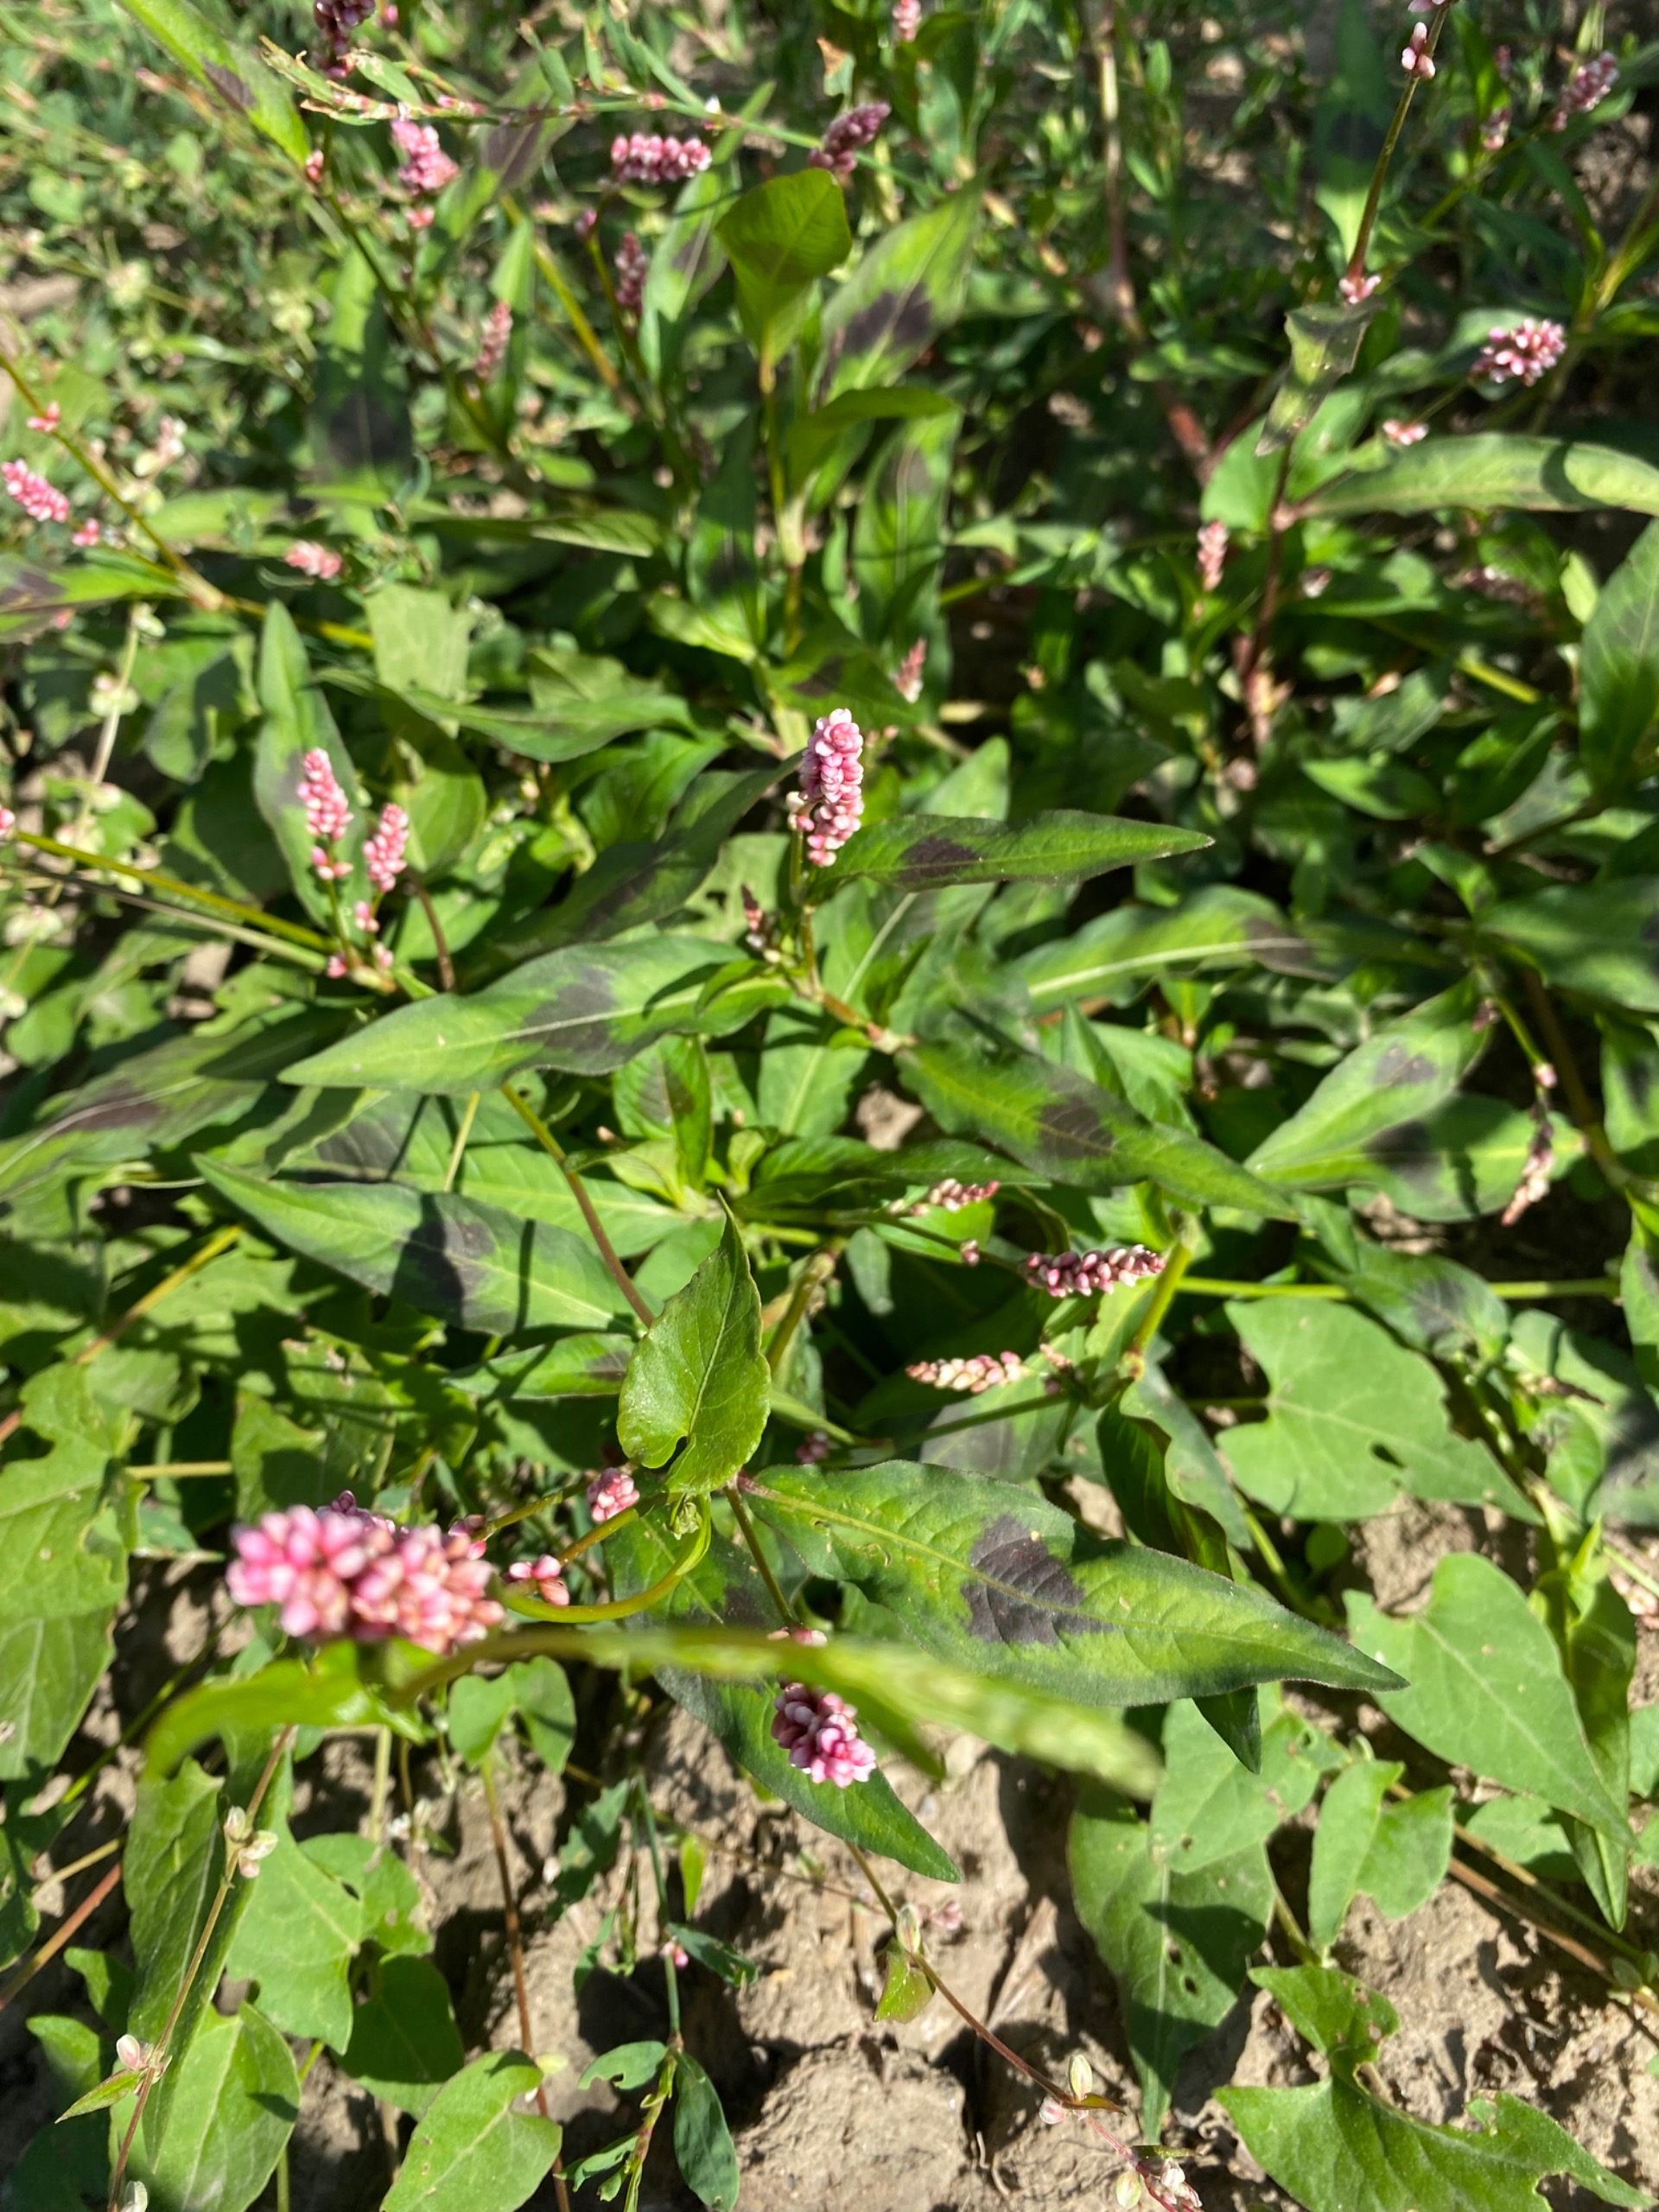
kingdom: Plantae
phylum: Tracheophyta
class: Magnoliopsida
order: Caryophyllales
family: Polygonaceae
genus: Persicaria
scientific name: Persicaria maculosa
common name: Fersken-pileurt
